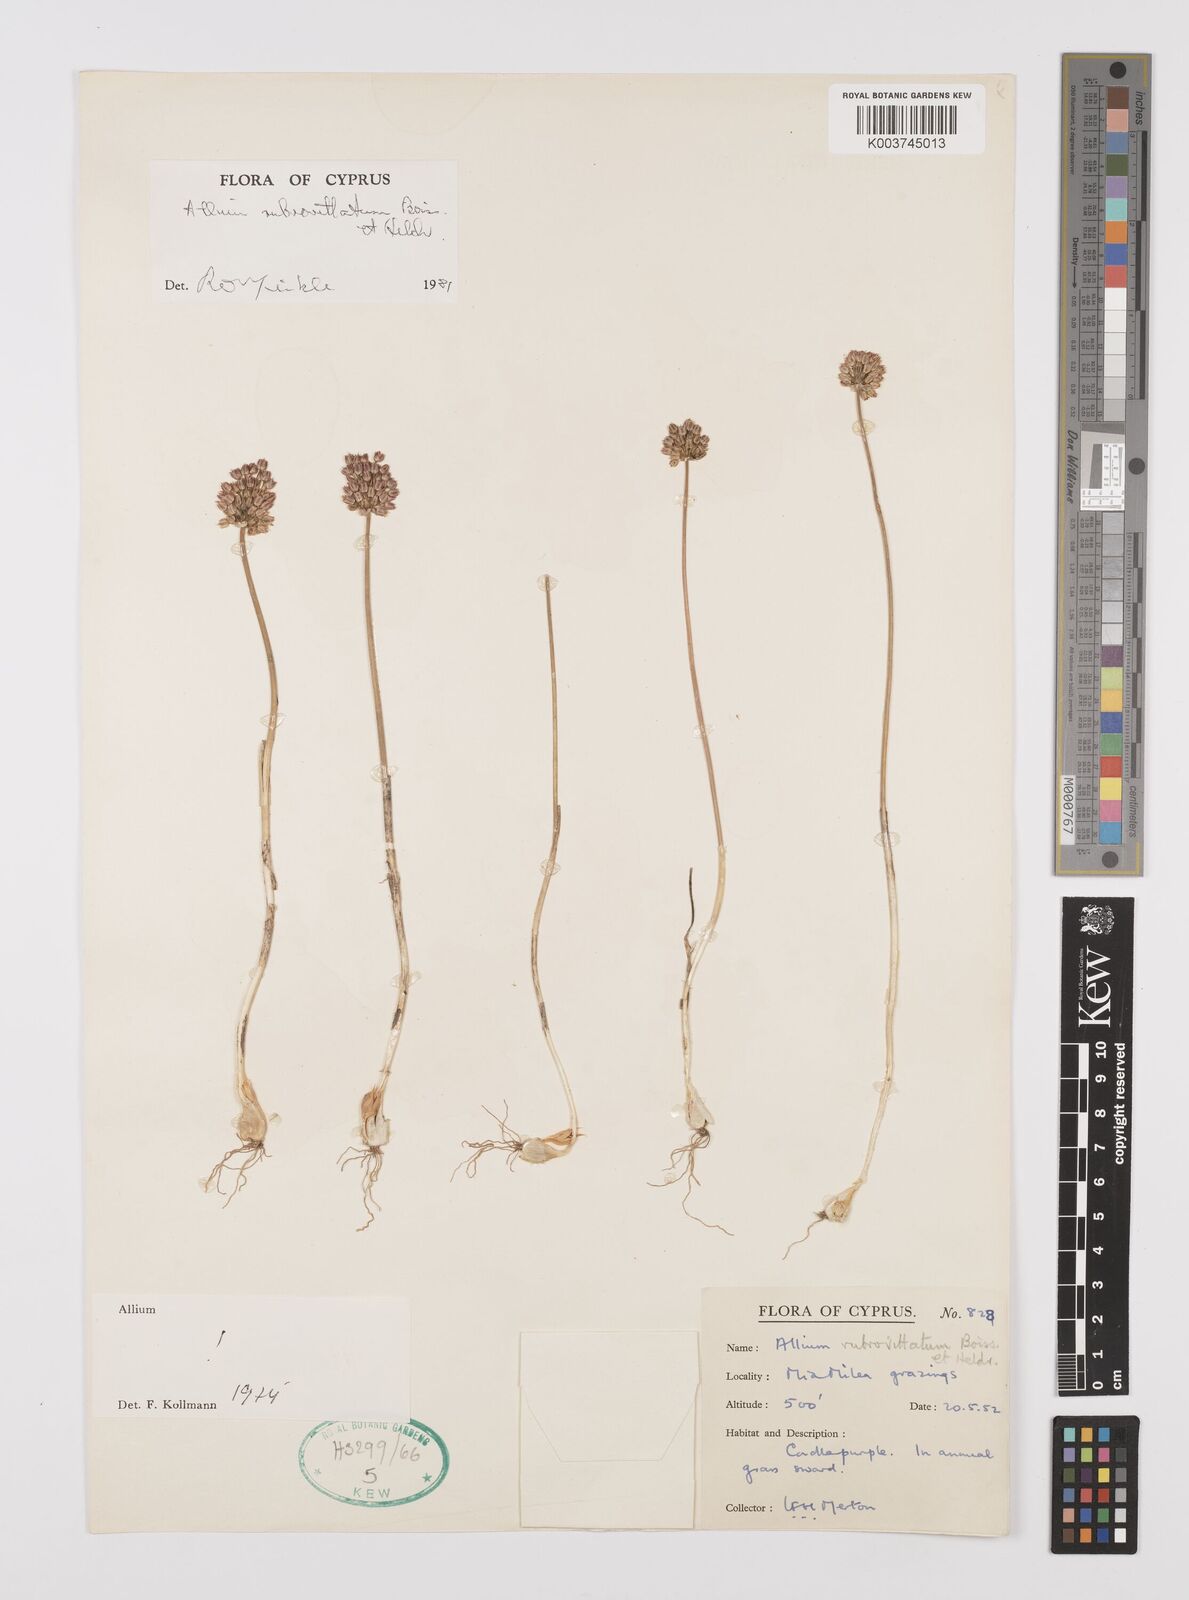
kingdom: Plantae
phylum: Tracheophyta
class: Liliopsida
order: Asparagales
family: Amaryllidaceae
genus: Allium
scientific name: Allium rubrovittatum
